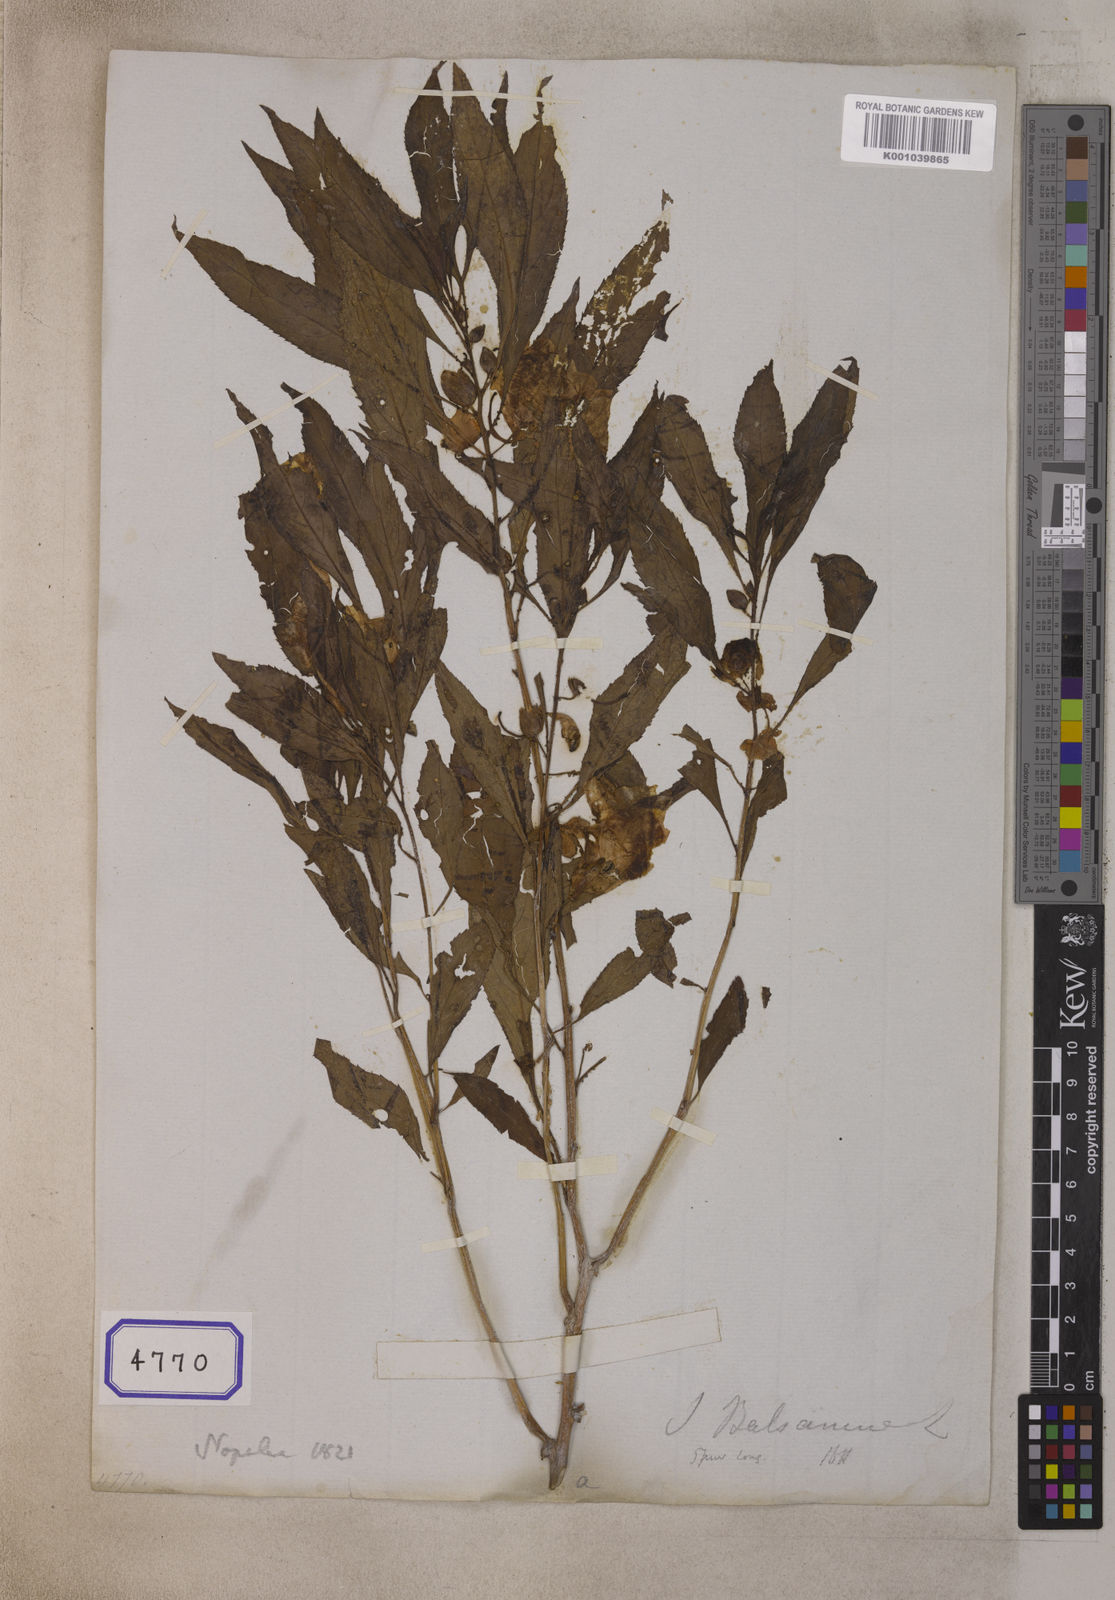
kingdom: Plantae
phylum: Tracheophyta
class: Magnoliopsida
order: Ericales
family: Balsaminaceae
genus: Impatiens
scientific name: Impatiens leptoceras
